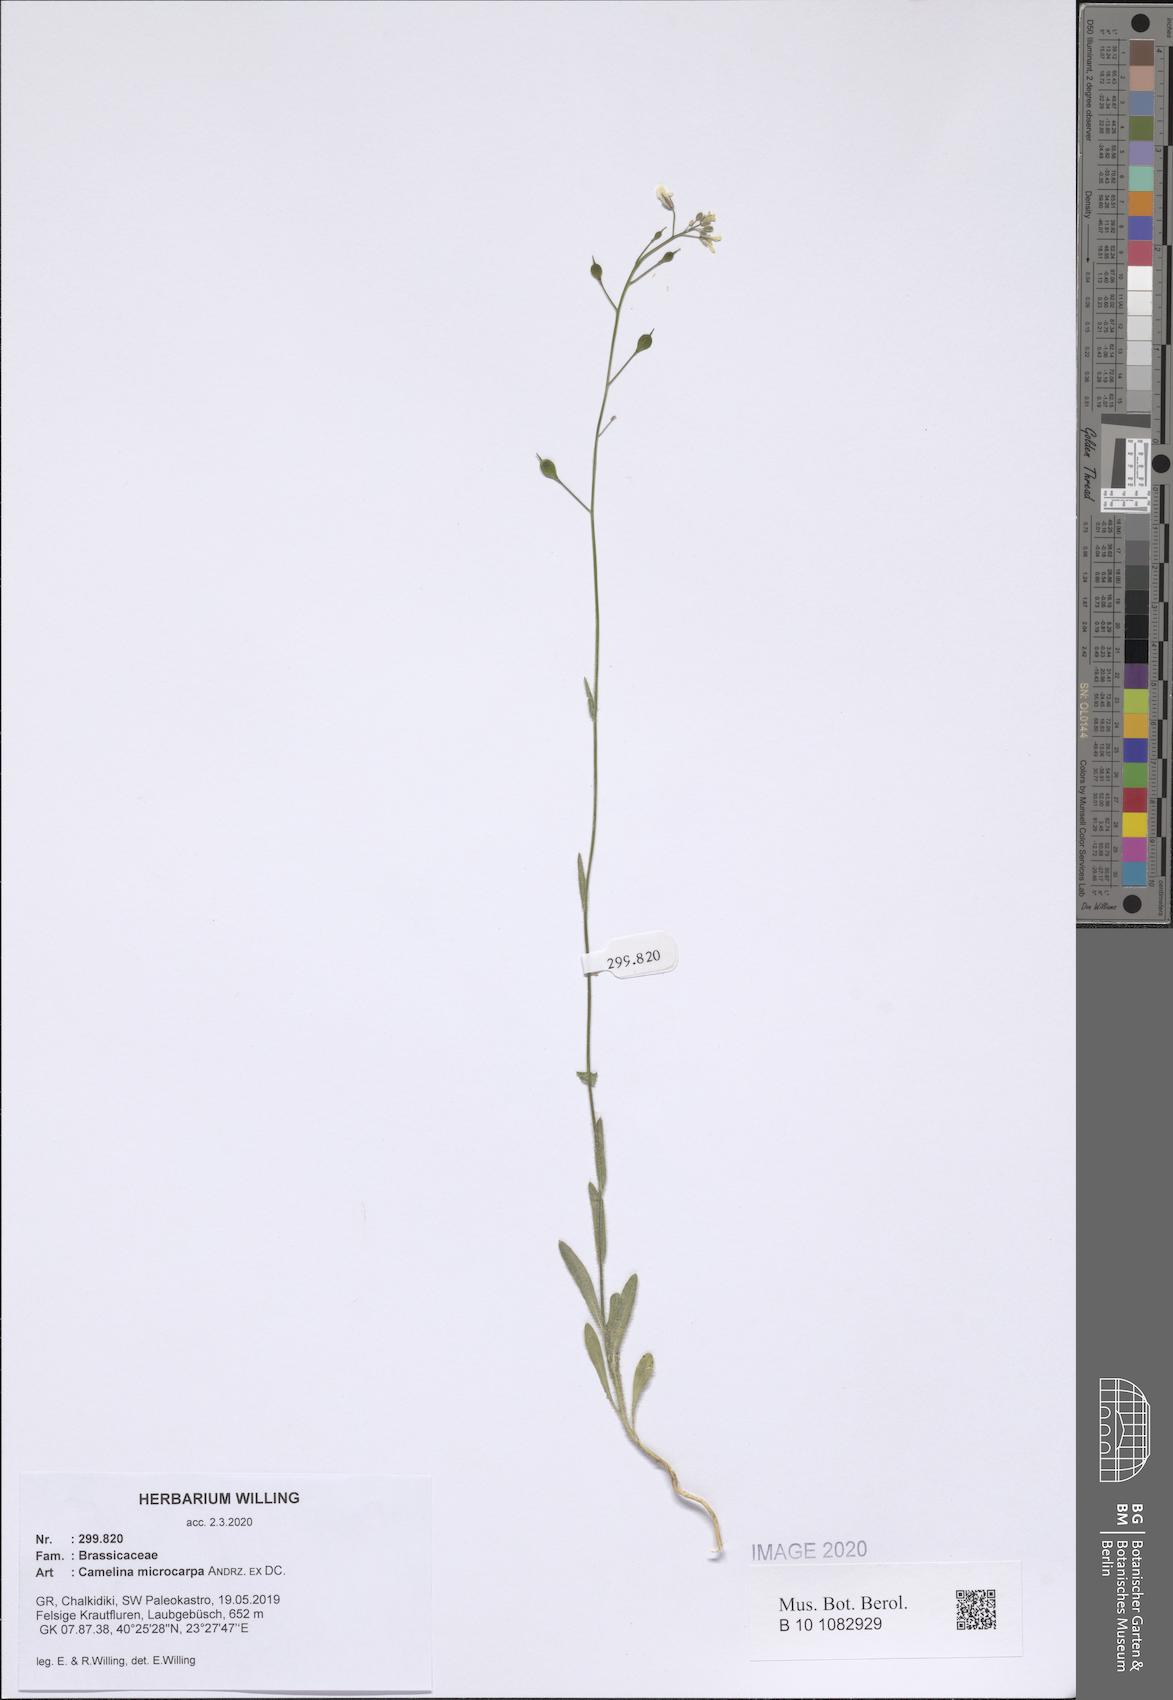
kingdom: Plantae
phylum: Tracheophyta
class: Magnoliopsida
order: Brassicales
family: Brassicaceae
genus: Camelina
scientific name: Camelina microcarpa
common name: Lesser gold-of-pleasure
